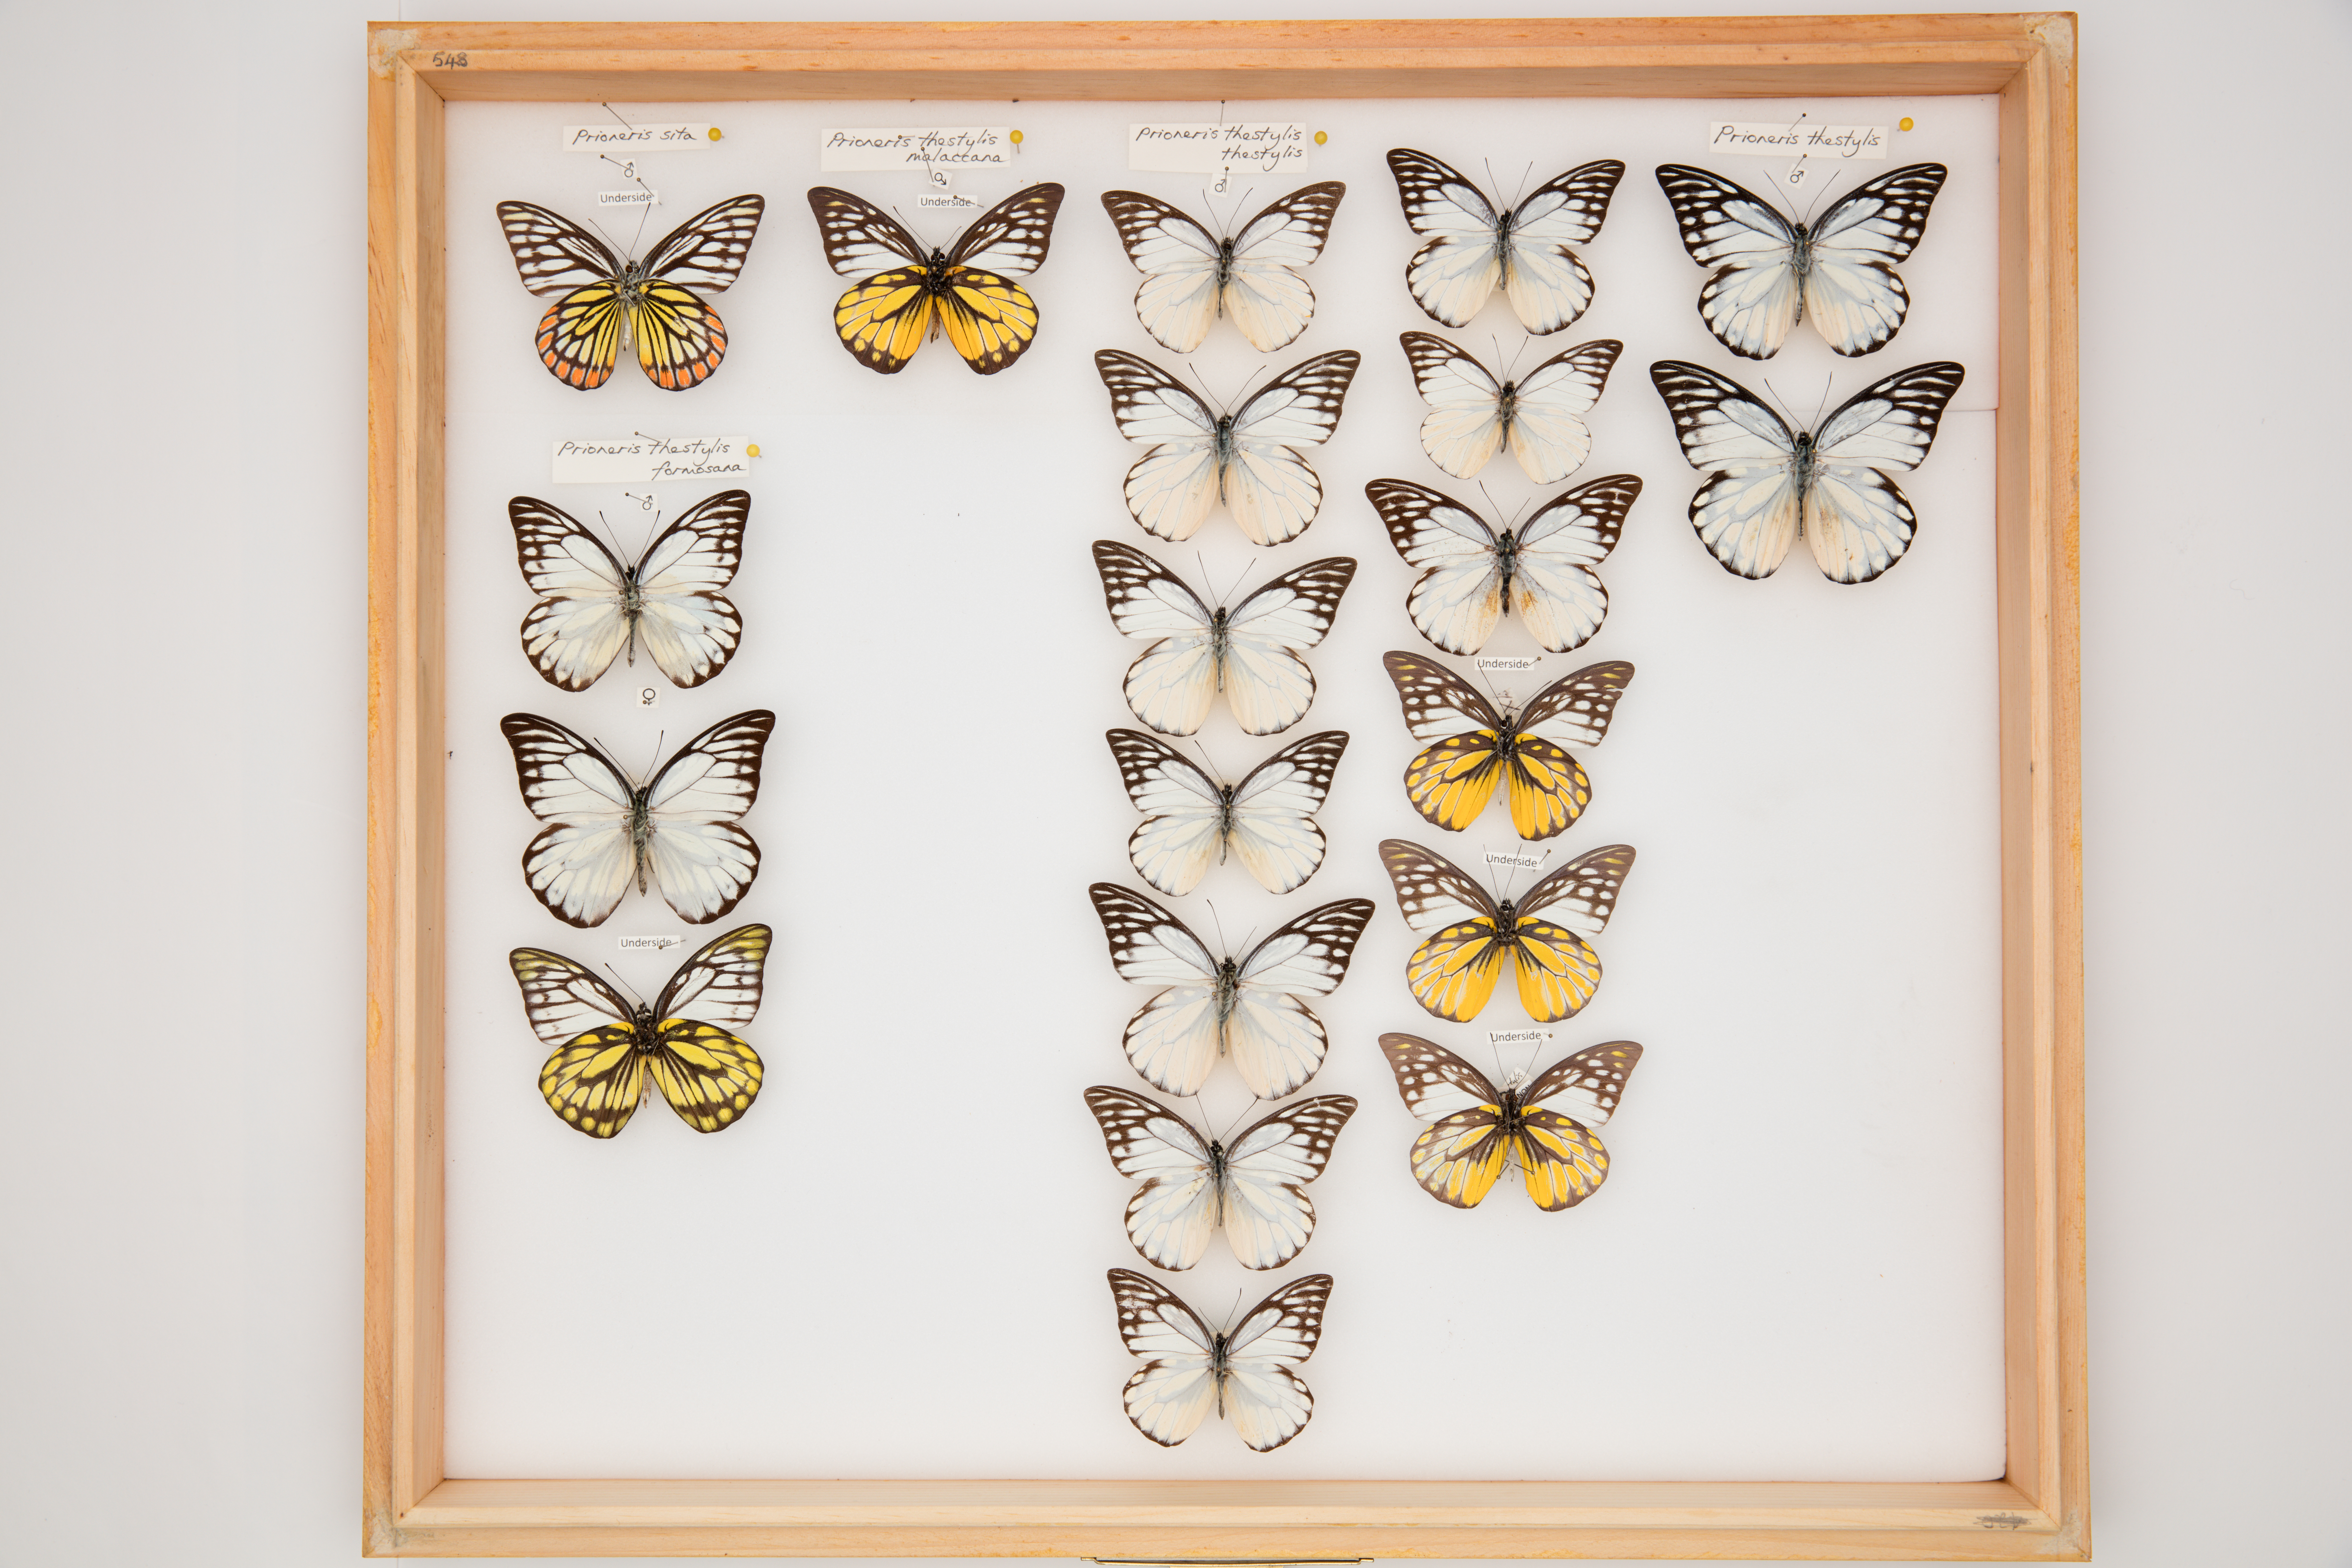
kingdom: Animalia
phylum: Arthropoda
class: Insecta
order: Lepidoptera
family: Pieridae
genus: Prioneris
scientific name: Prioneris thestylis
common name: Spotted sawtooth
